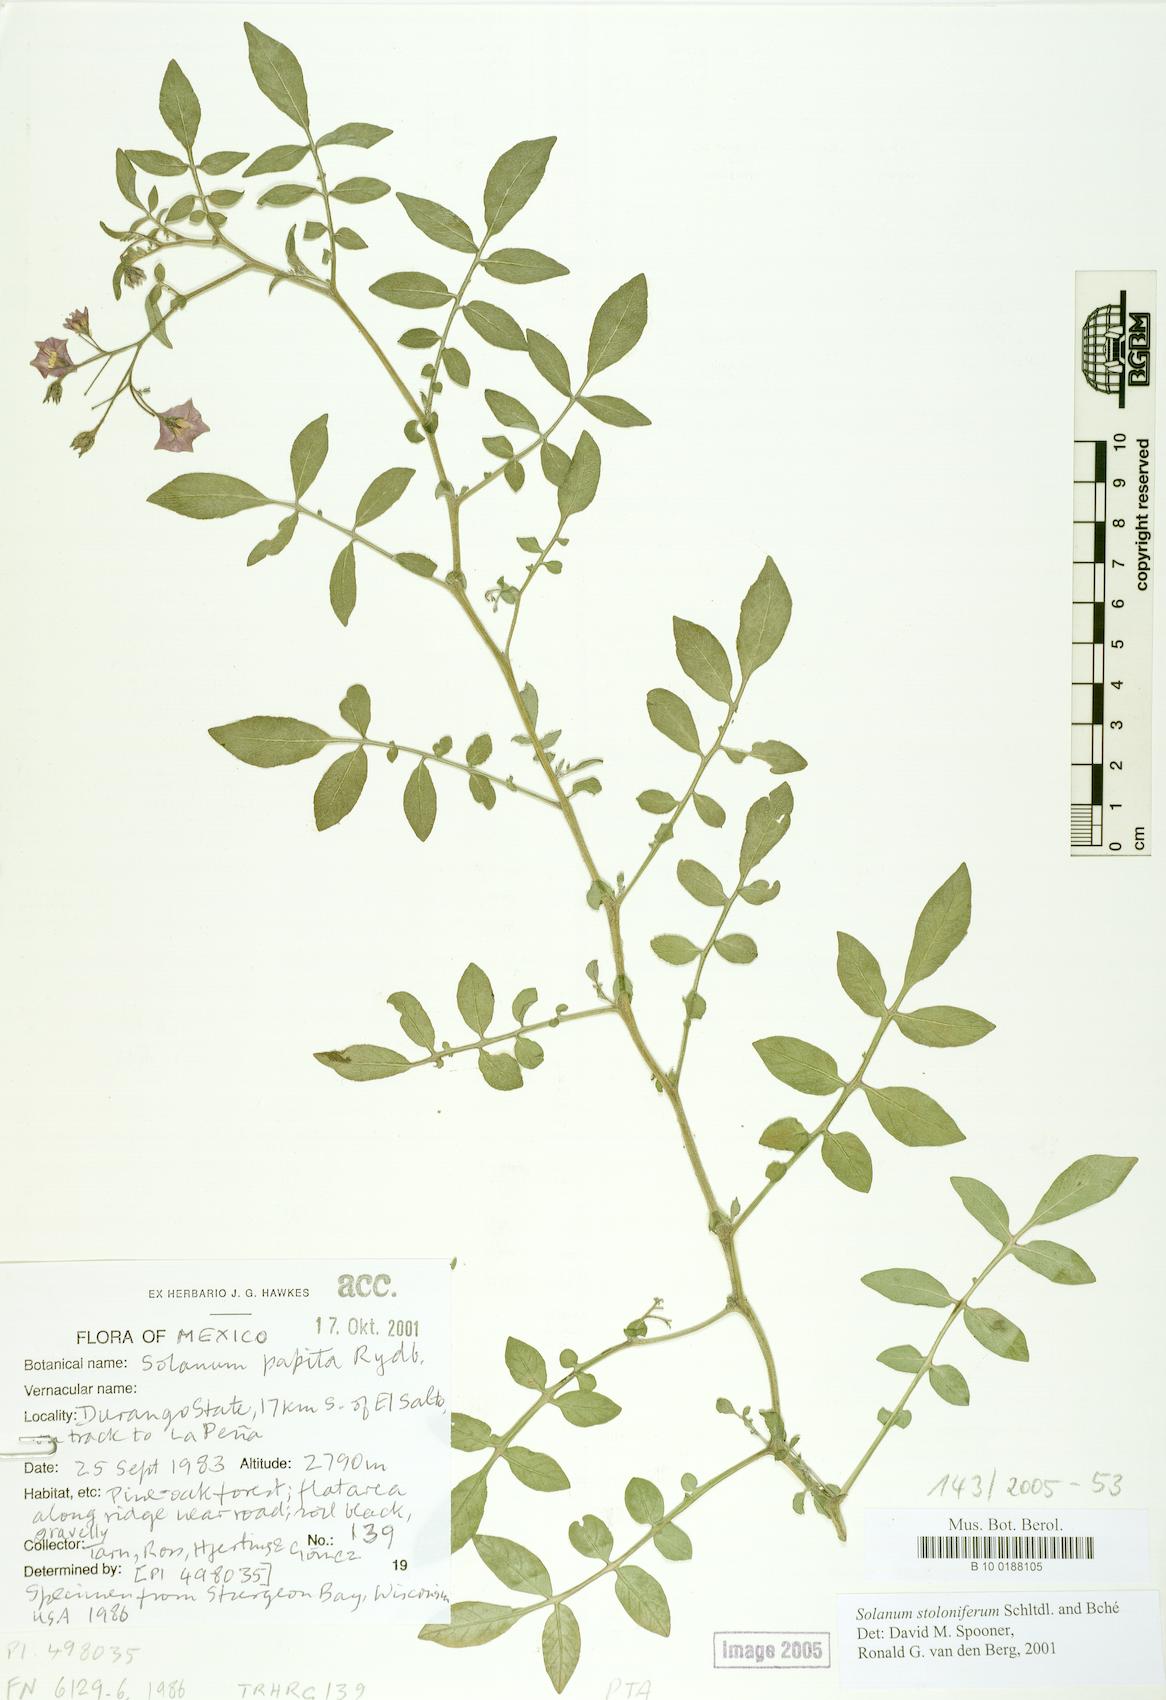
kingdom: Plantae
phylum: Tracheophyta
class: Magnoliopsida
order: Solanales
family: Solanaceae
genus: Solanum
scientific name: Solanum stoloniferum
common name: Fendler's nighshade
